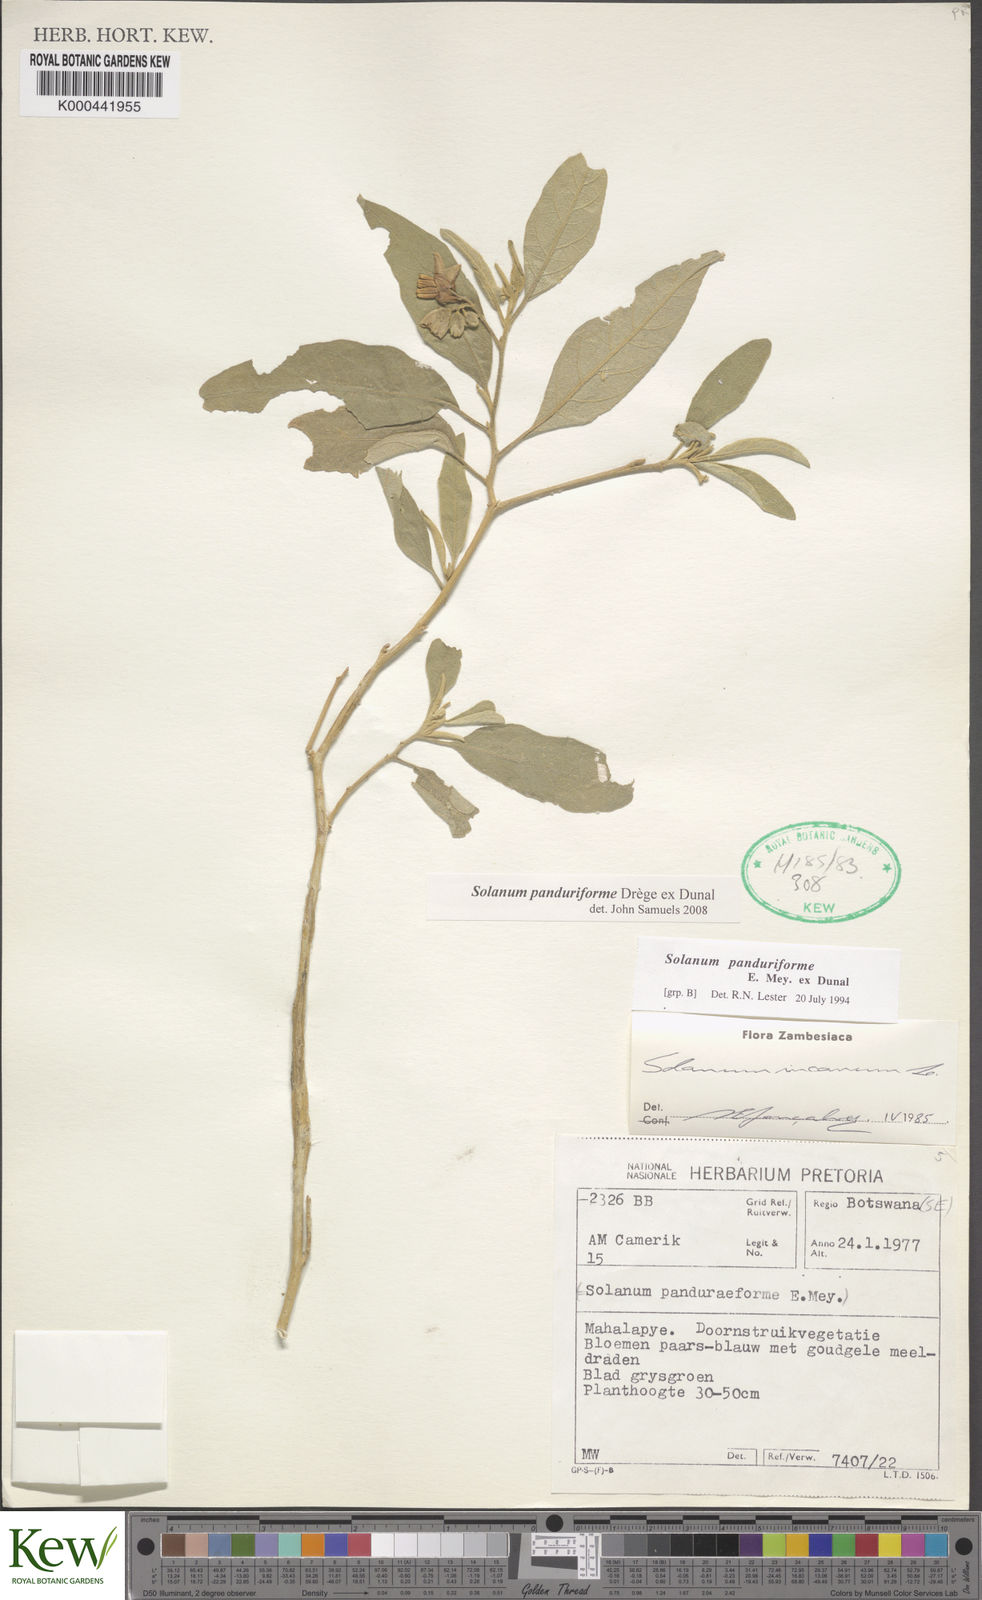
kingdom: Plantae
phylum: Tracheophyta
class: Magnoliopsida
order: Solanales
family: Solanaceae
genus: Solanum
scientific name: Solanum campylacanthum
